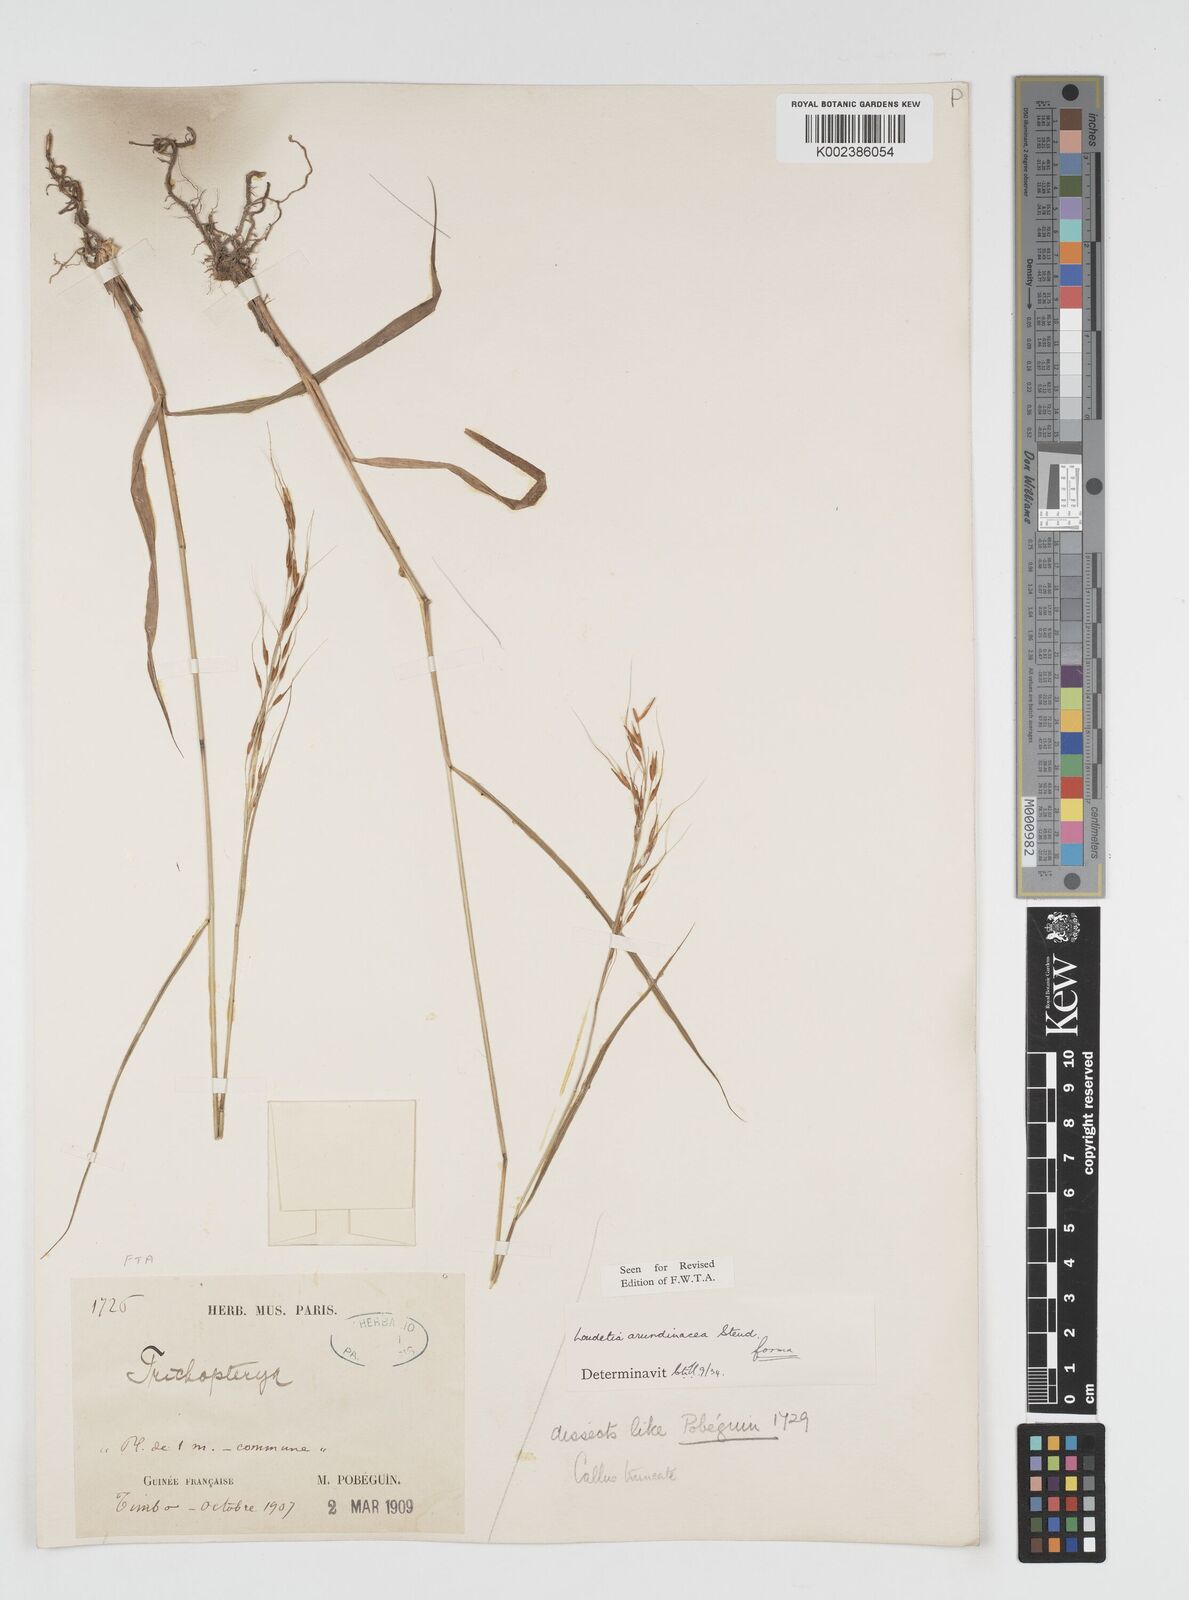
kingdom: Plantae
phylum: Tracheophyta
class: Liliopsida
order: Poales
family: Poaceae
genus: Loudetia
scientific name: Loudetia arundinacea
